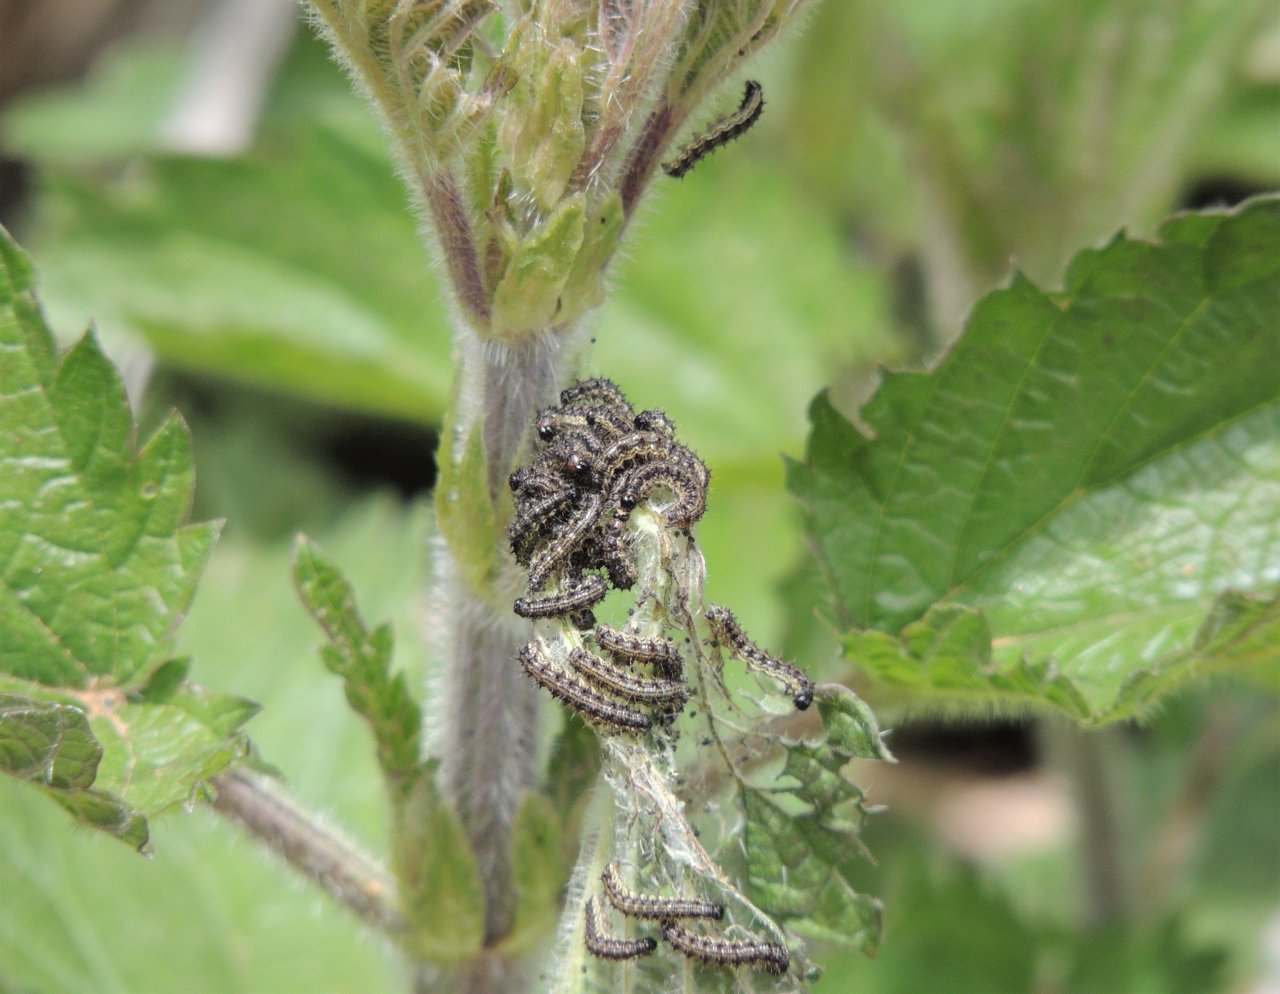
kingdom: Animalia
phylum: Arthropoda
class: Insecta
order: Lepidoptera
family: Nymphalidae
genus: Aglais
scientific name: Aglais milberti
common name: Milbert's Tortoiseshell
